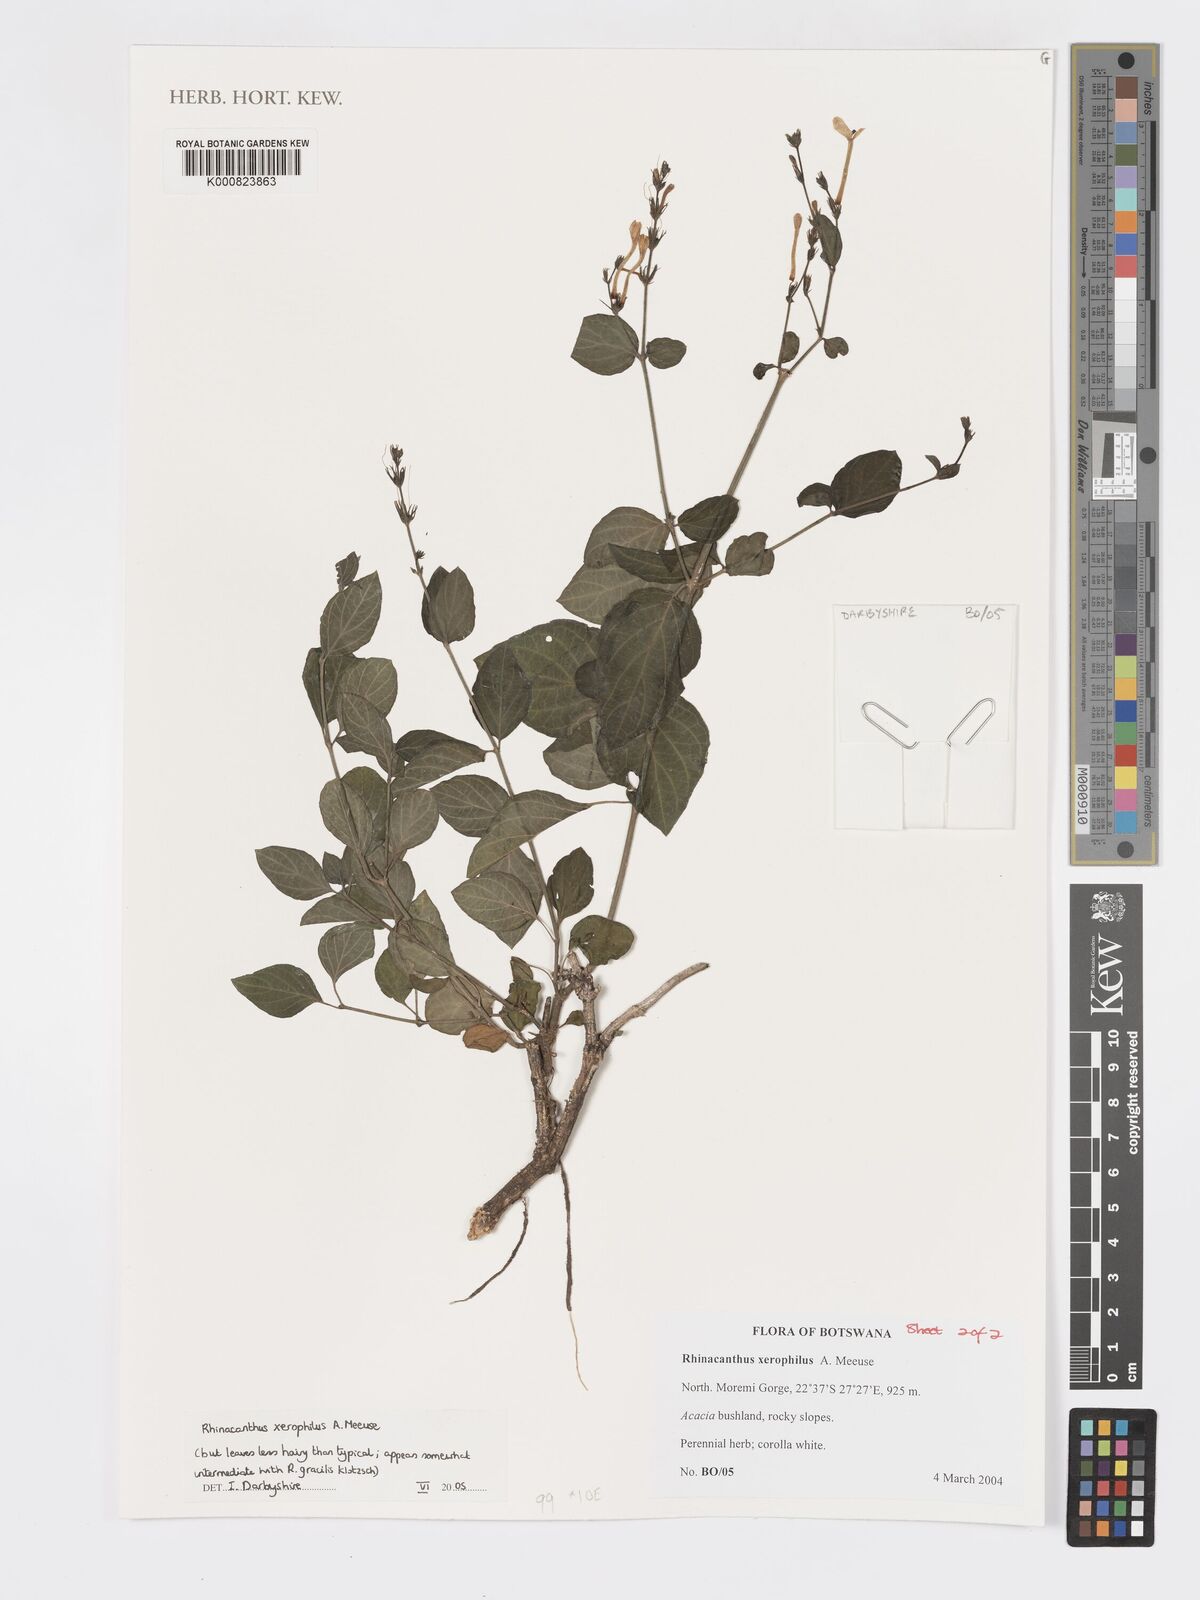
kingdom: Plantae
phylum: Tracheophyta
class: Magnoliopsida
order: Lamiales
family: Acanthaceae
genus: Rhinacanthus
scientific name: Rhinacanthus xerophilus
